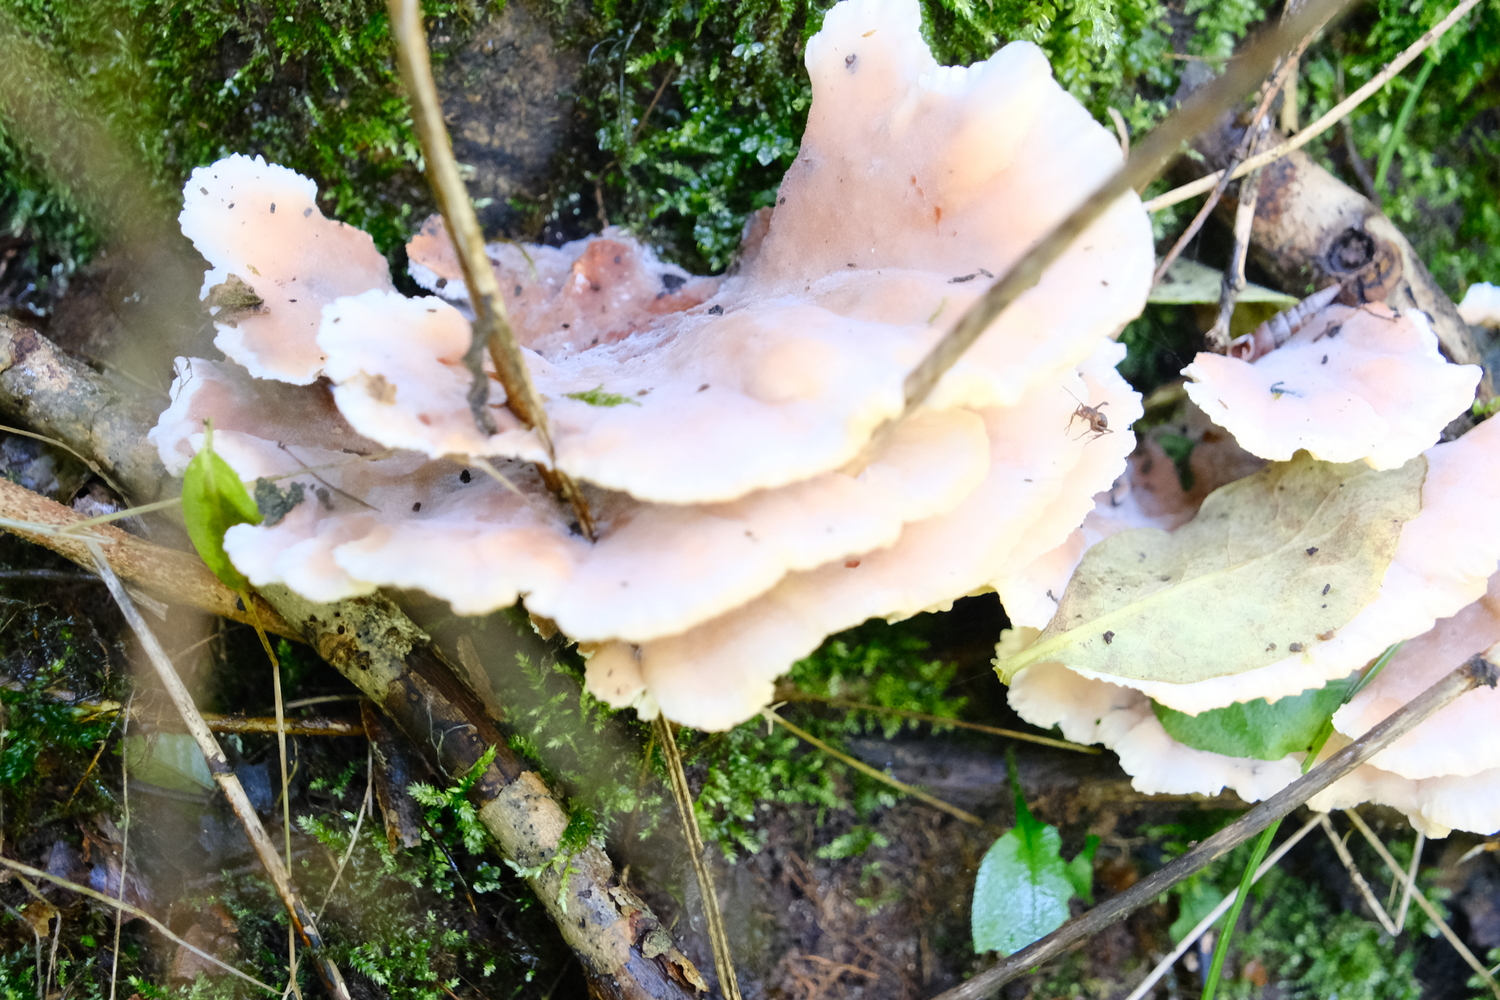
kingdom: Fungi
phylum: Basidiomycota
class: Agaricomycetes
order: Polyporales
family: Podoscyphaceae
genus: Abortiporus
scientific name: Abortiporus biennis
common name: rødmende pjalteporesvamp
